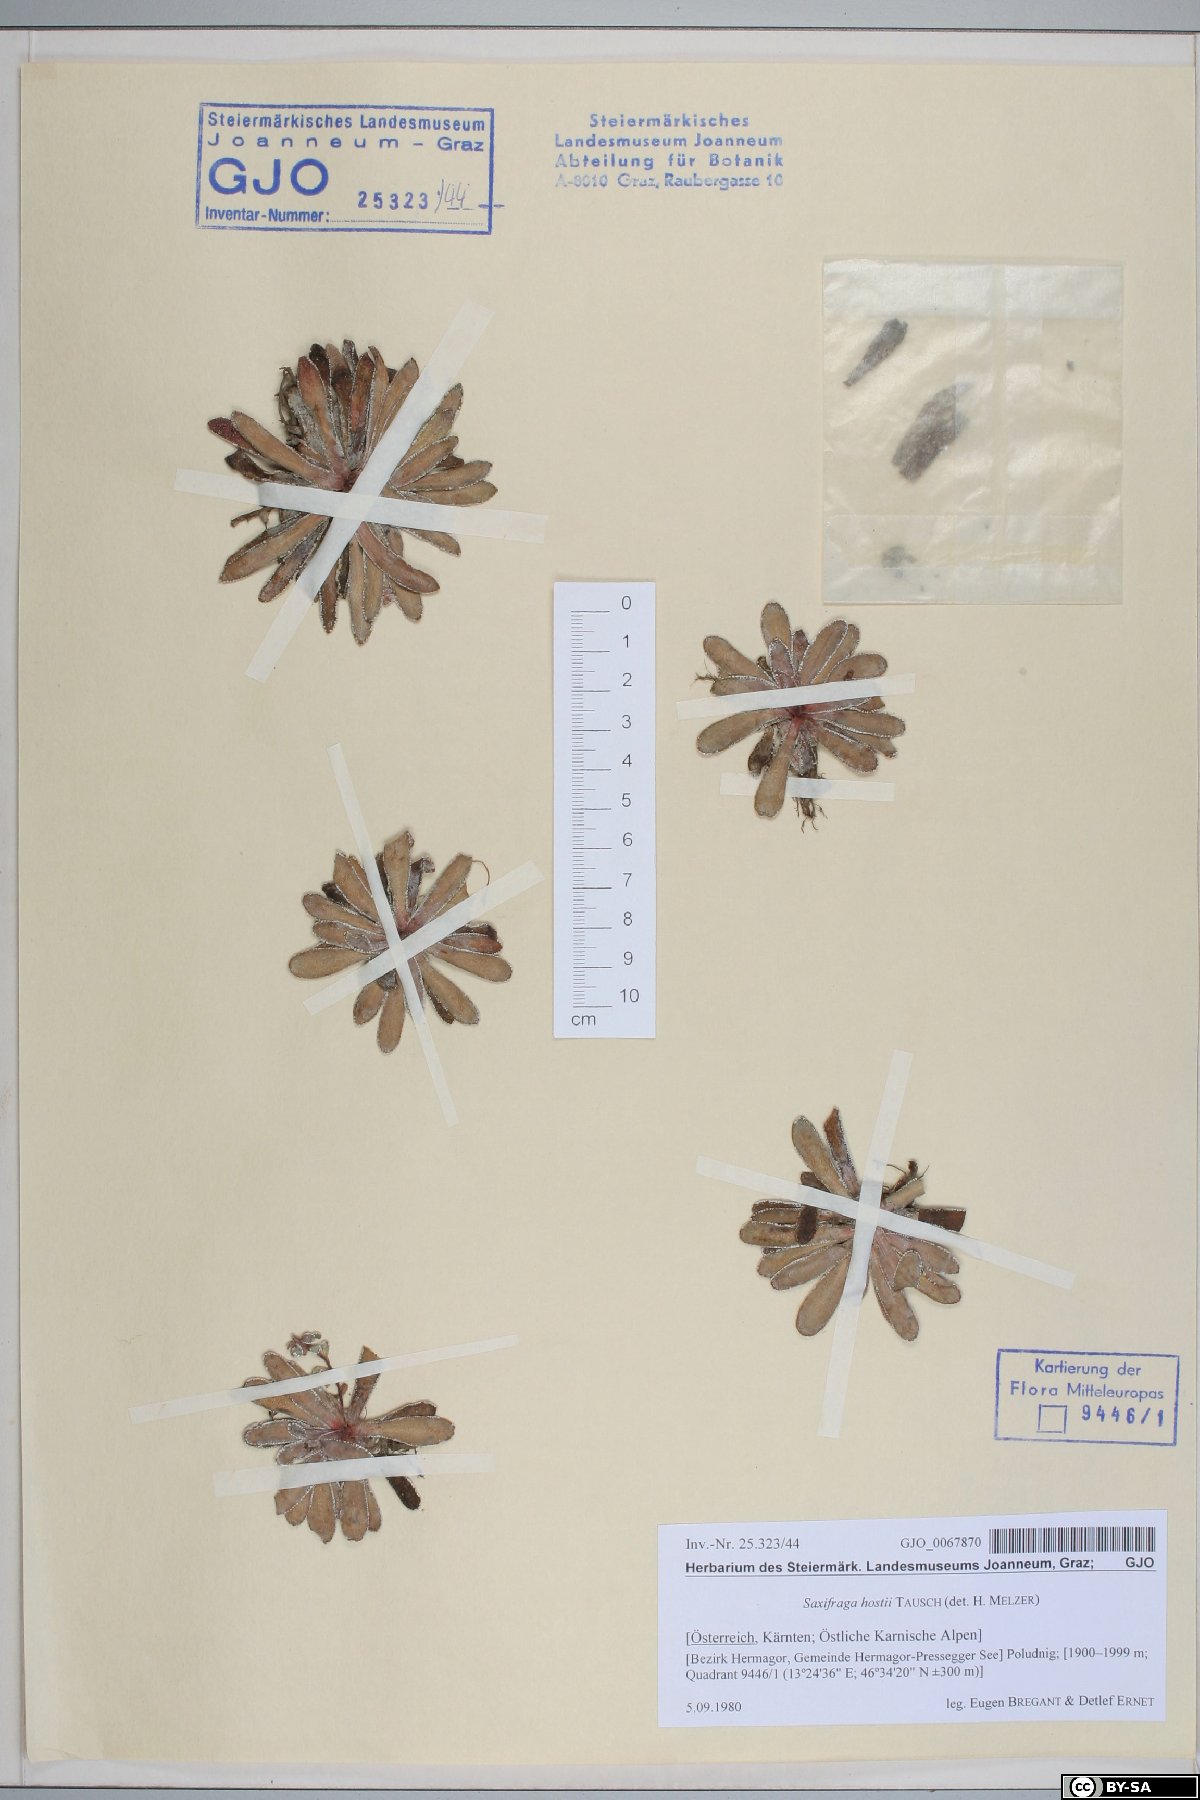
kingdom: Plantae
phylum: Tracheophyta
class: Magnoliopsida
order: Saxifragales
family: Saxifragaceae
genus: Saxifraga
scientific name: Saxifraga hostii
